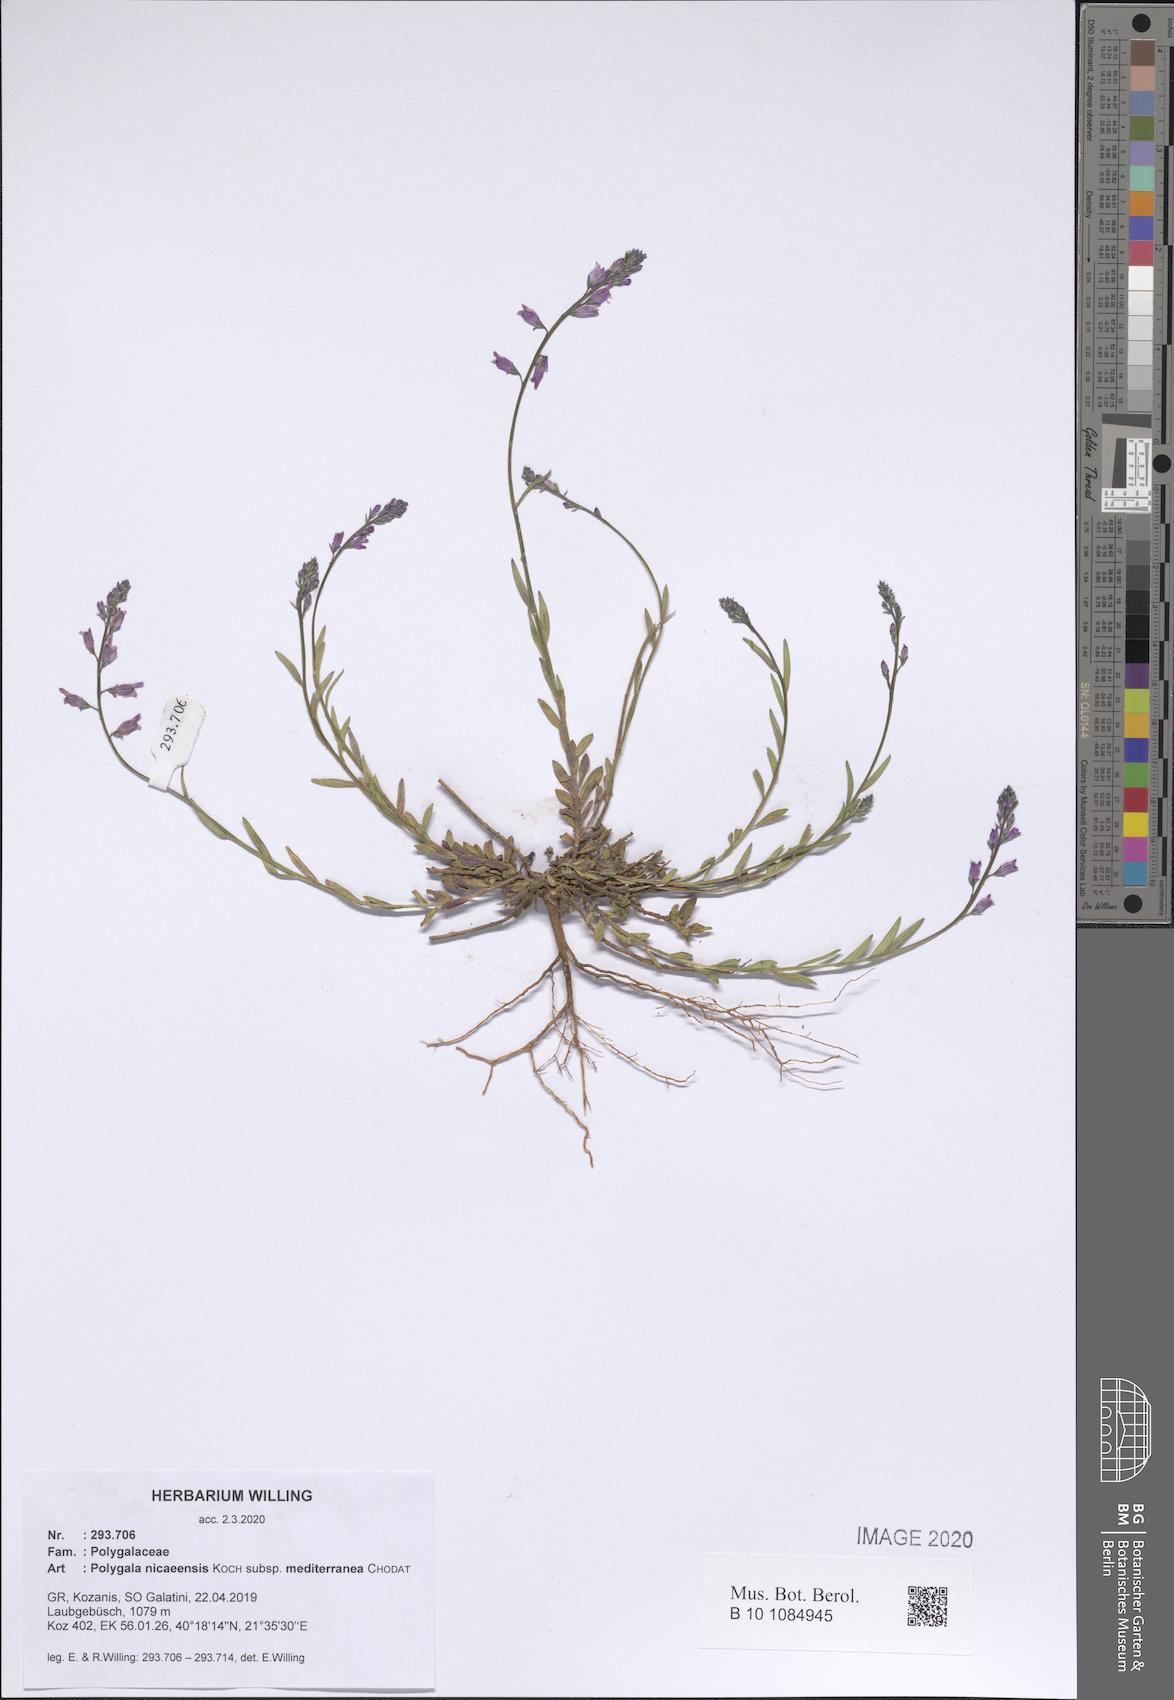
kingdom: Plantae
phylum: Tracheophyta
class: Magnoliopsida
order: Fabales
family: Polygalaceae
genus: Polygala
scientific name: Polygala nicaeensis
